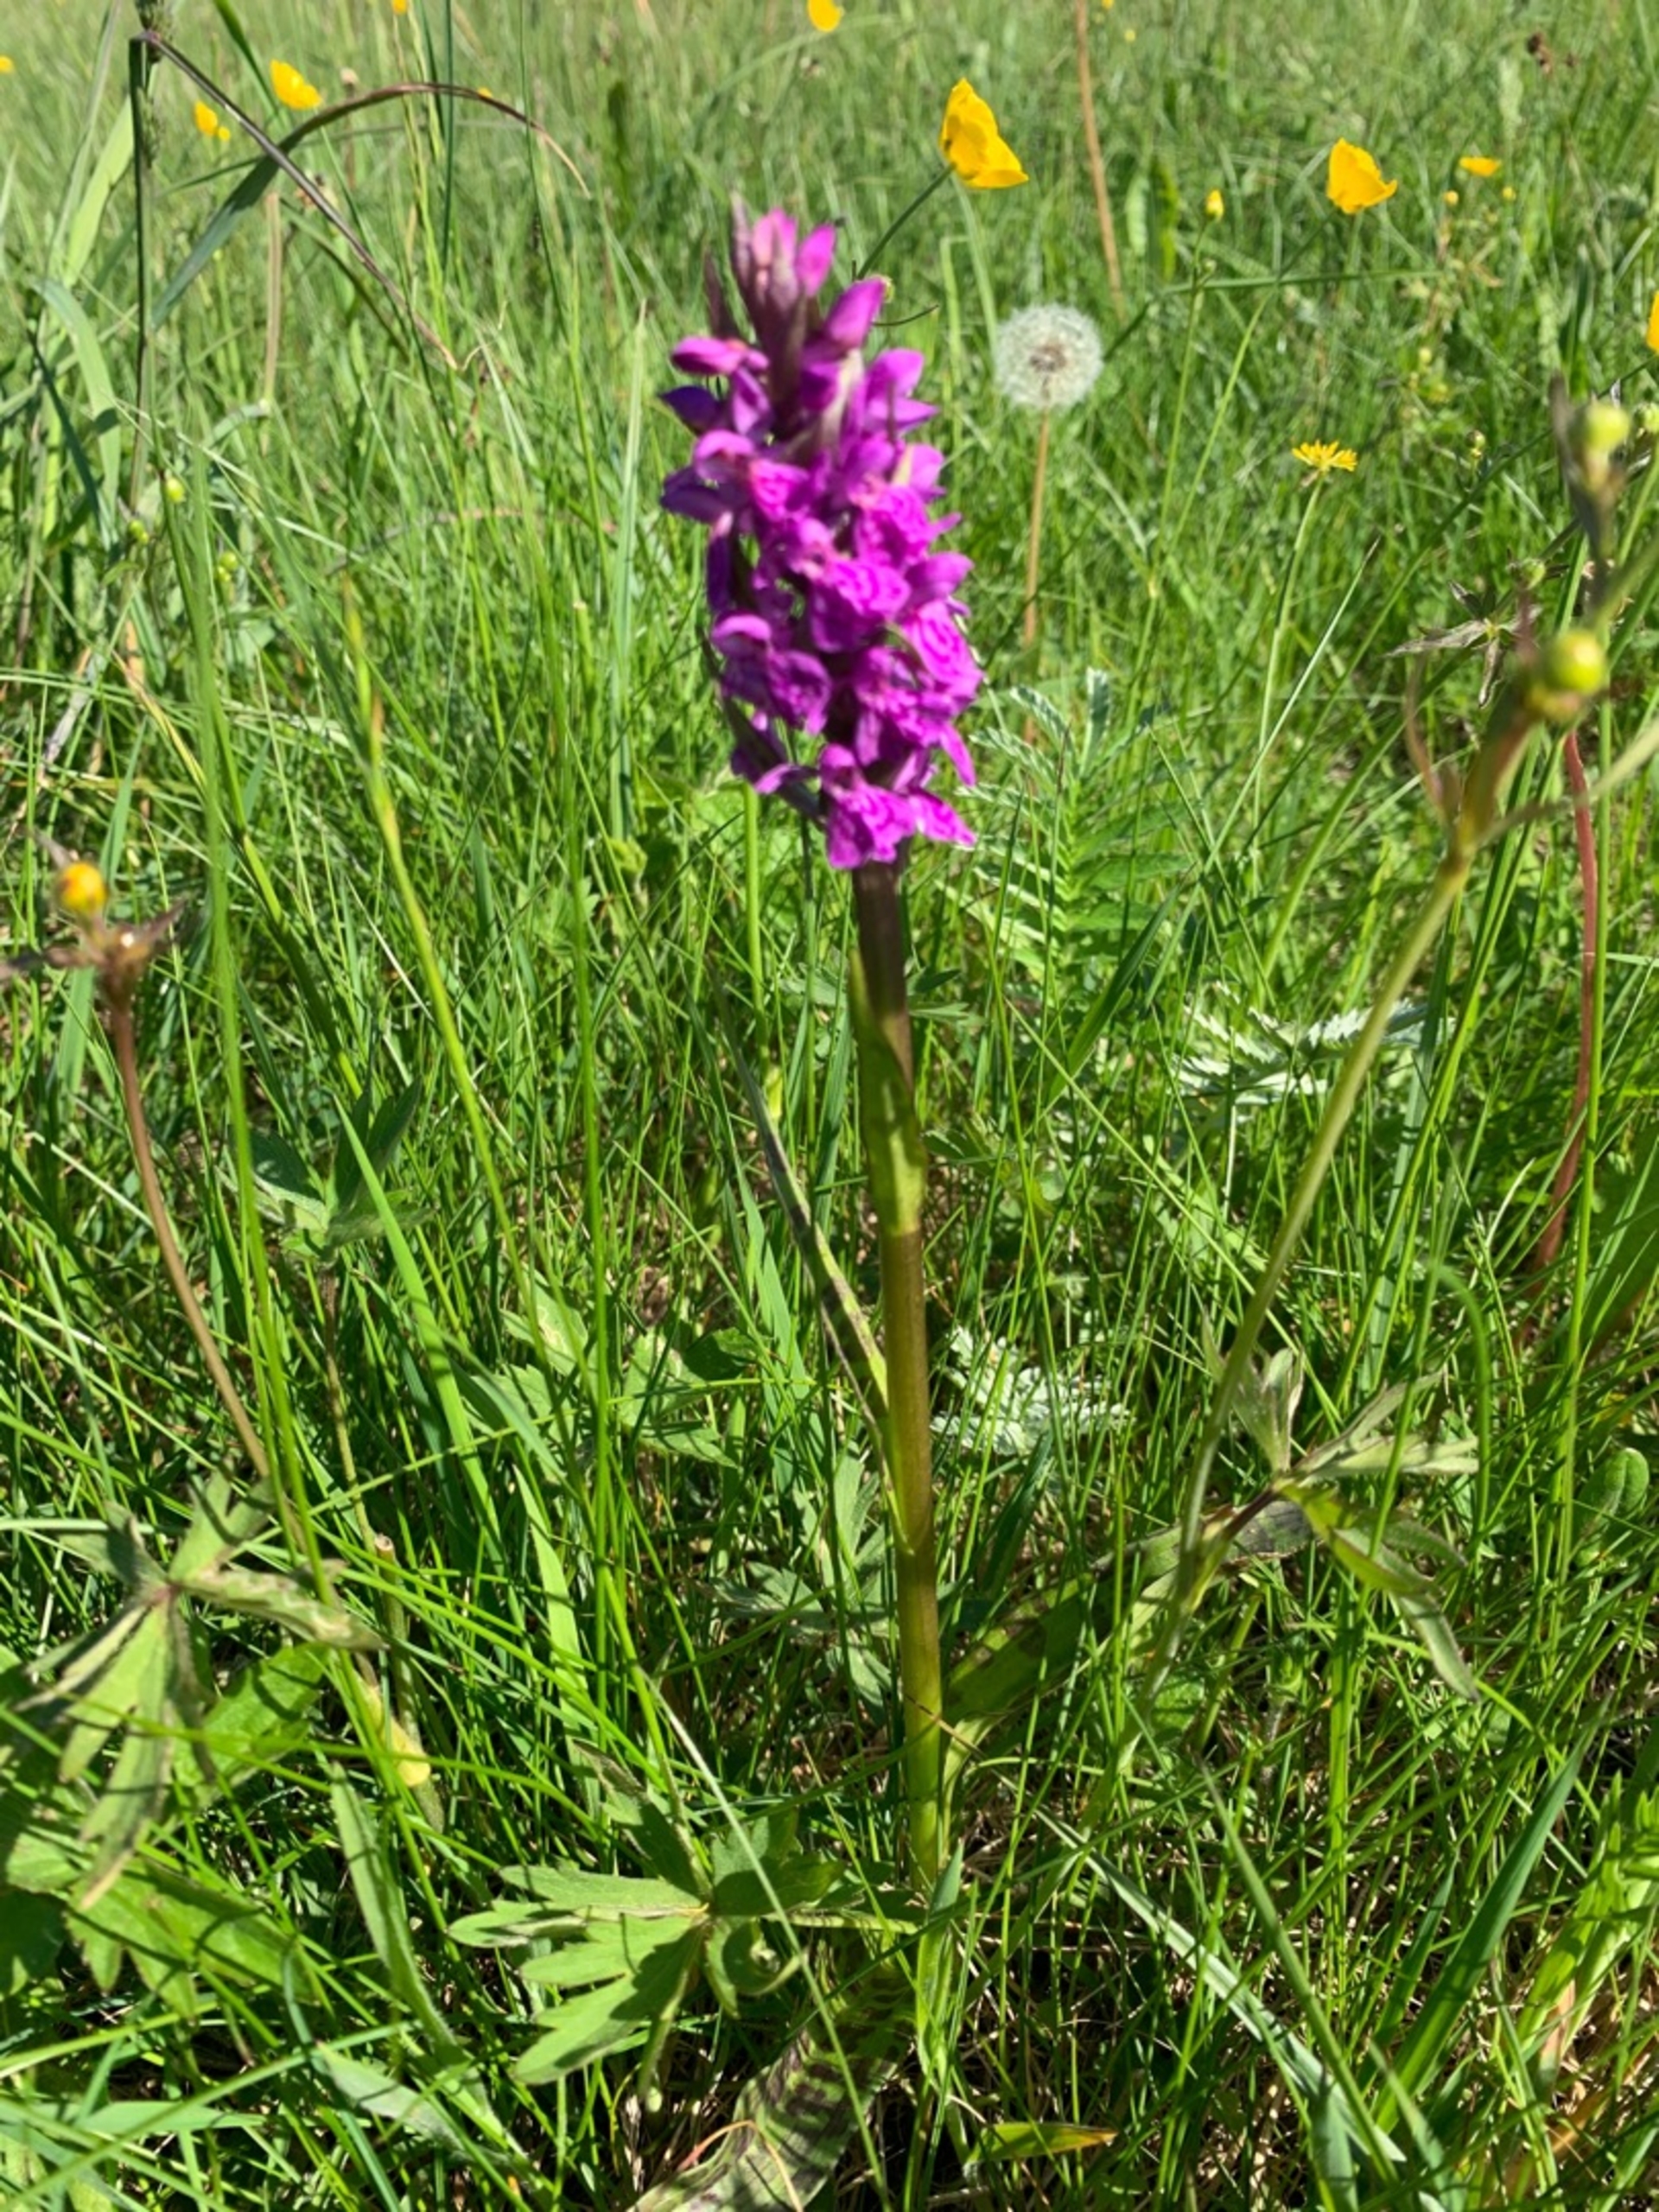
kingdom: Plantae
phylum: Tracheophyta
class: Liliopsida
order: Asparagales
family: Orchidaceae
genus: Dactylorhiza
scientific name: Dactylorhiza majalis
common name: Maj-gøgeurt
